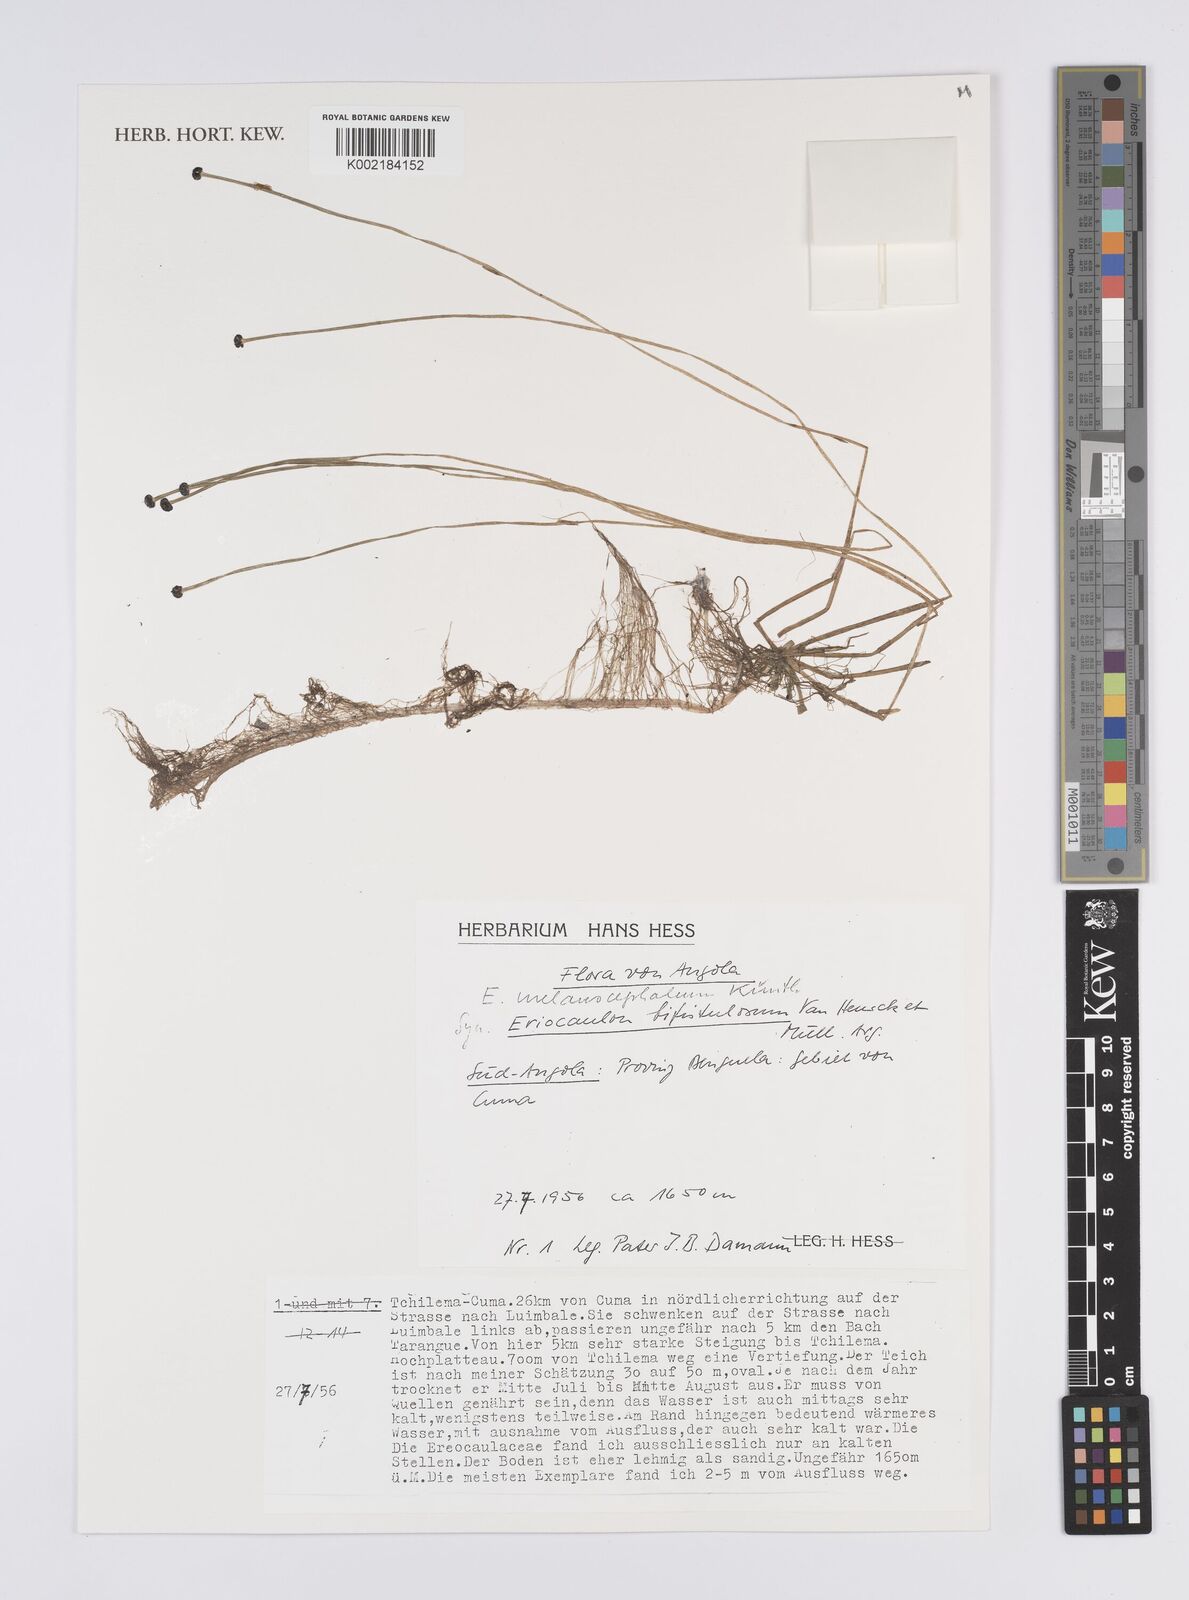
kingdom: Plantae
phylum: Tracheophyta
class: Liliopsida
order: Poales
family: Eriocaulaceae
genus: Eriocaulon
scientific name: Eriocaulon setaceum
